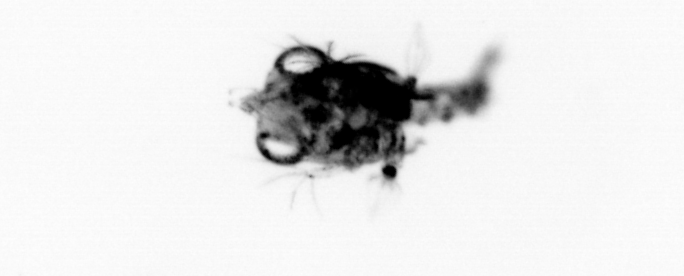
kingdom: Animalia
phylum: Arthropoda
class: Malacostraca
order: Decapoda
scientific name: Decapoda
